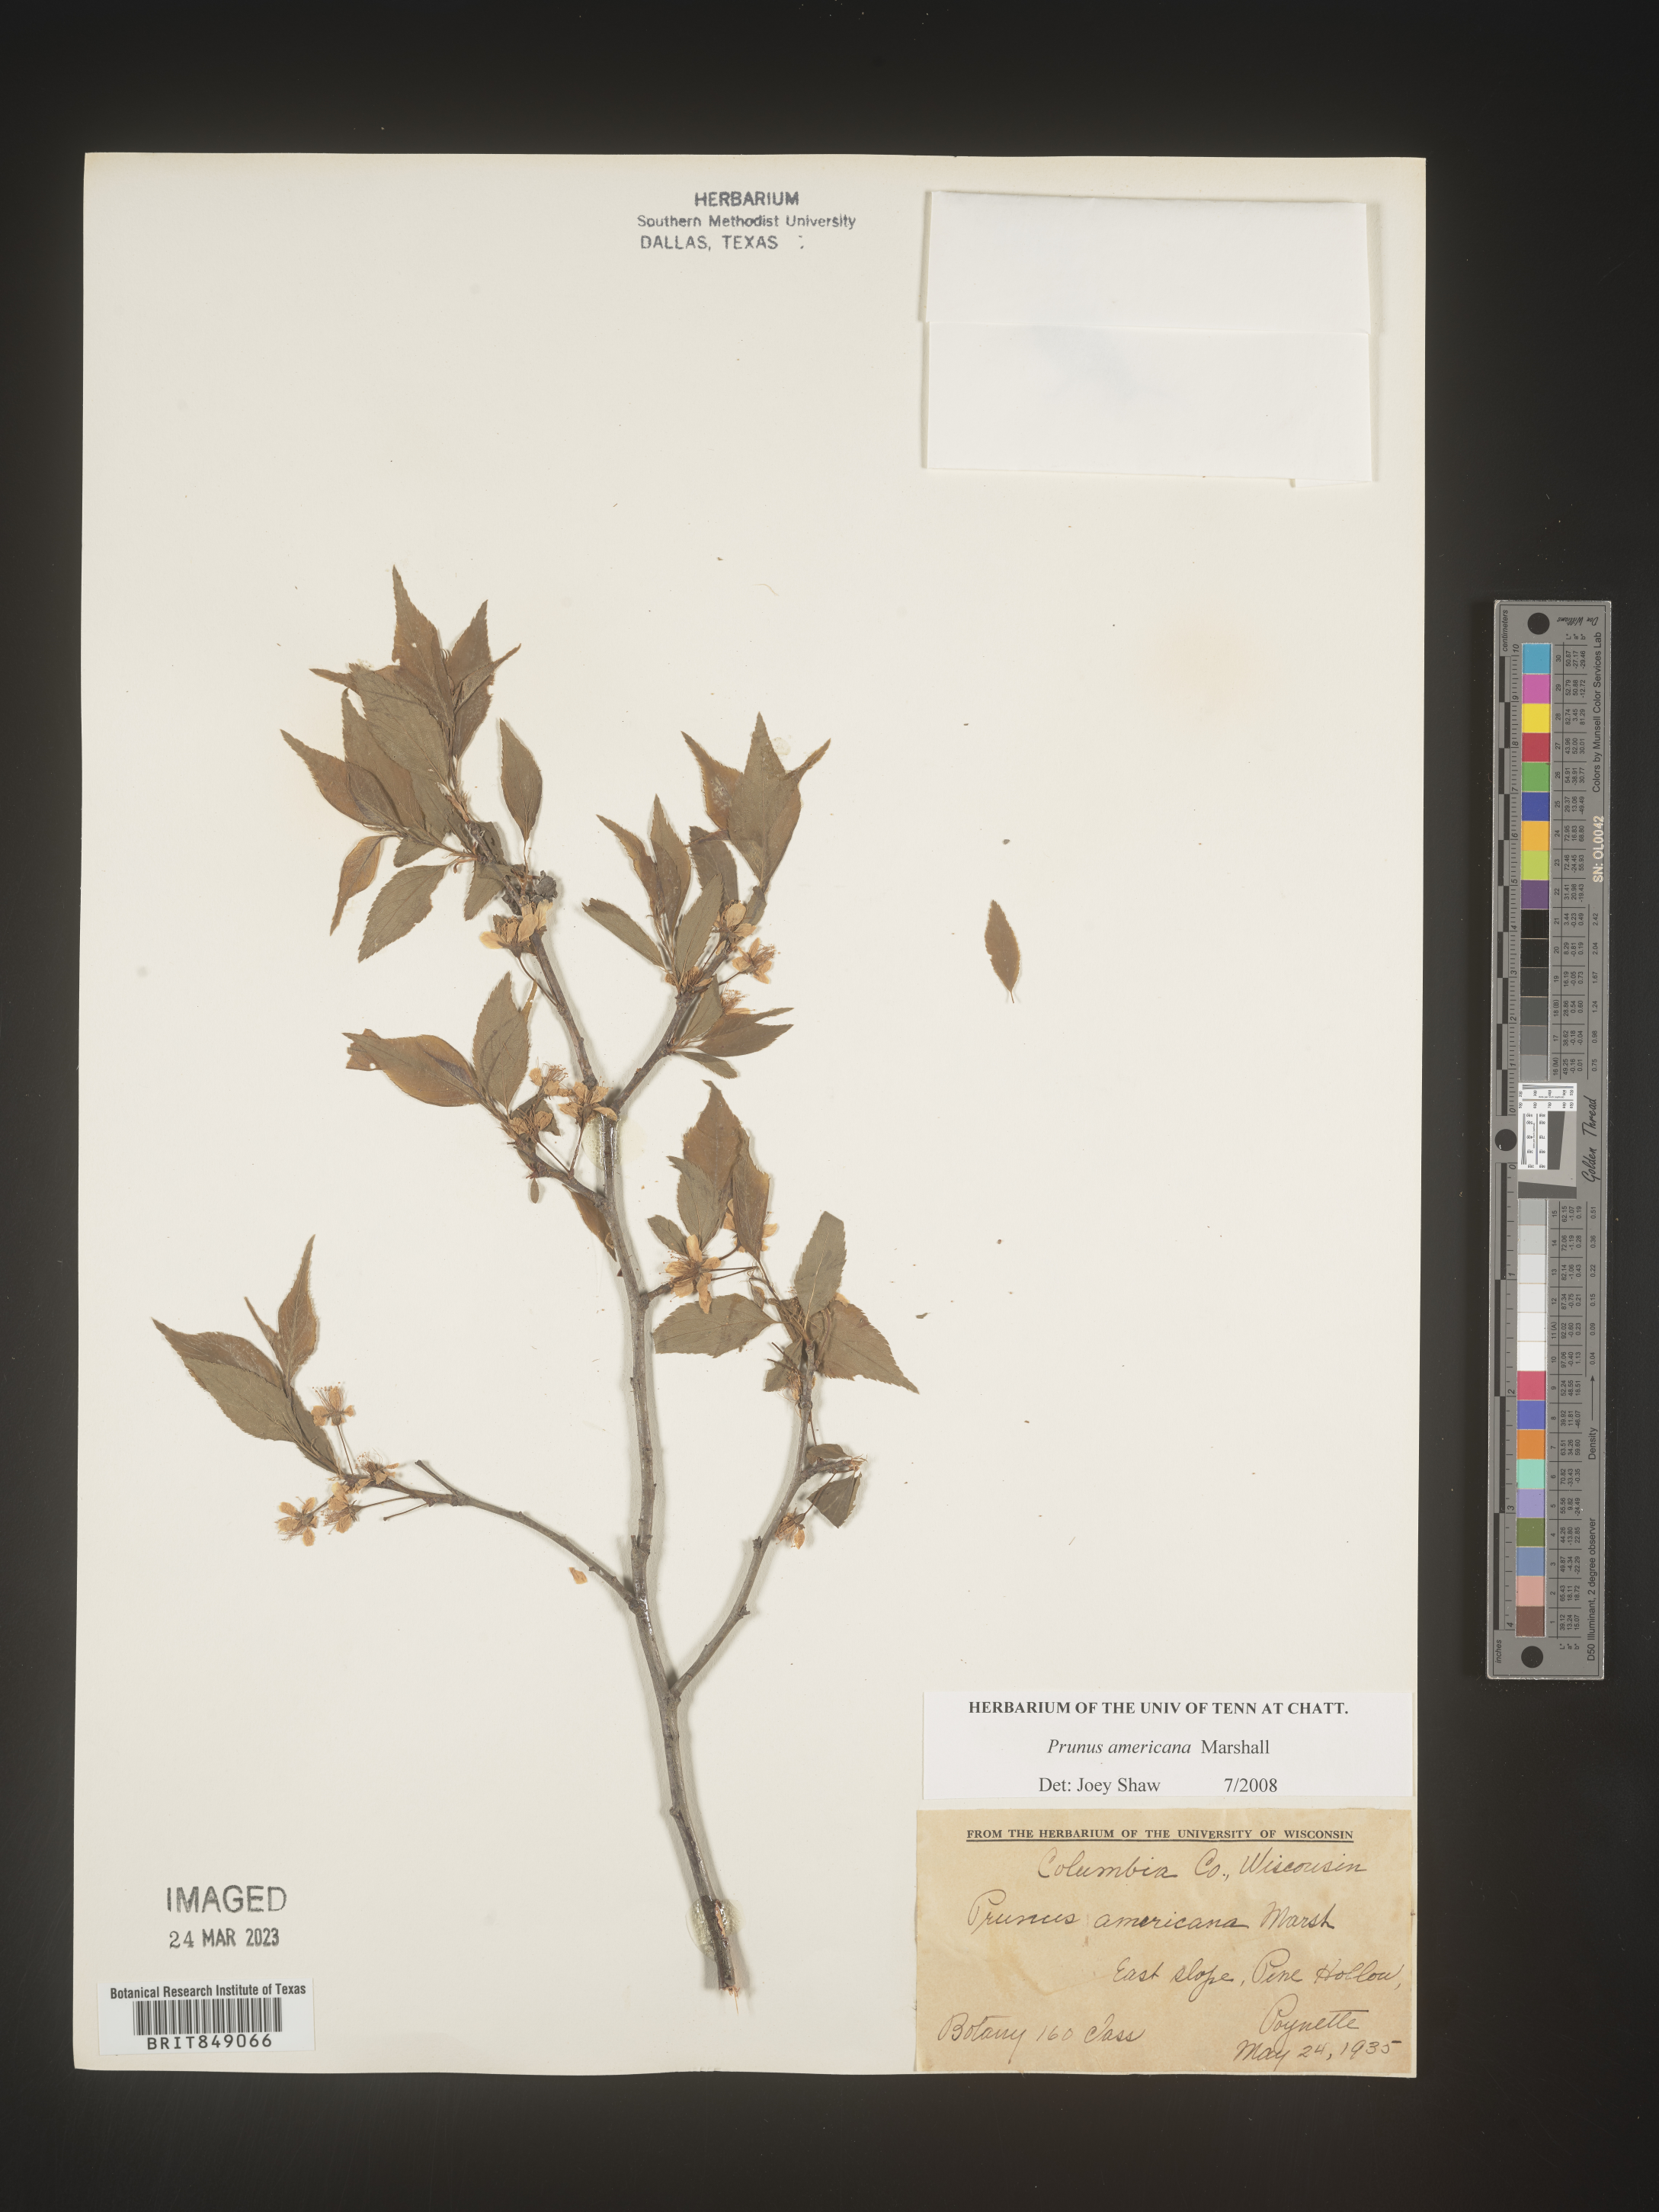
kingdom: Plantae
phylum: Tracheophyta
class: Magnoliopsida
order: Rosales
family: Rosaceae
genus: Prunus
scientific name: Prunus americana
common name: American plum
